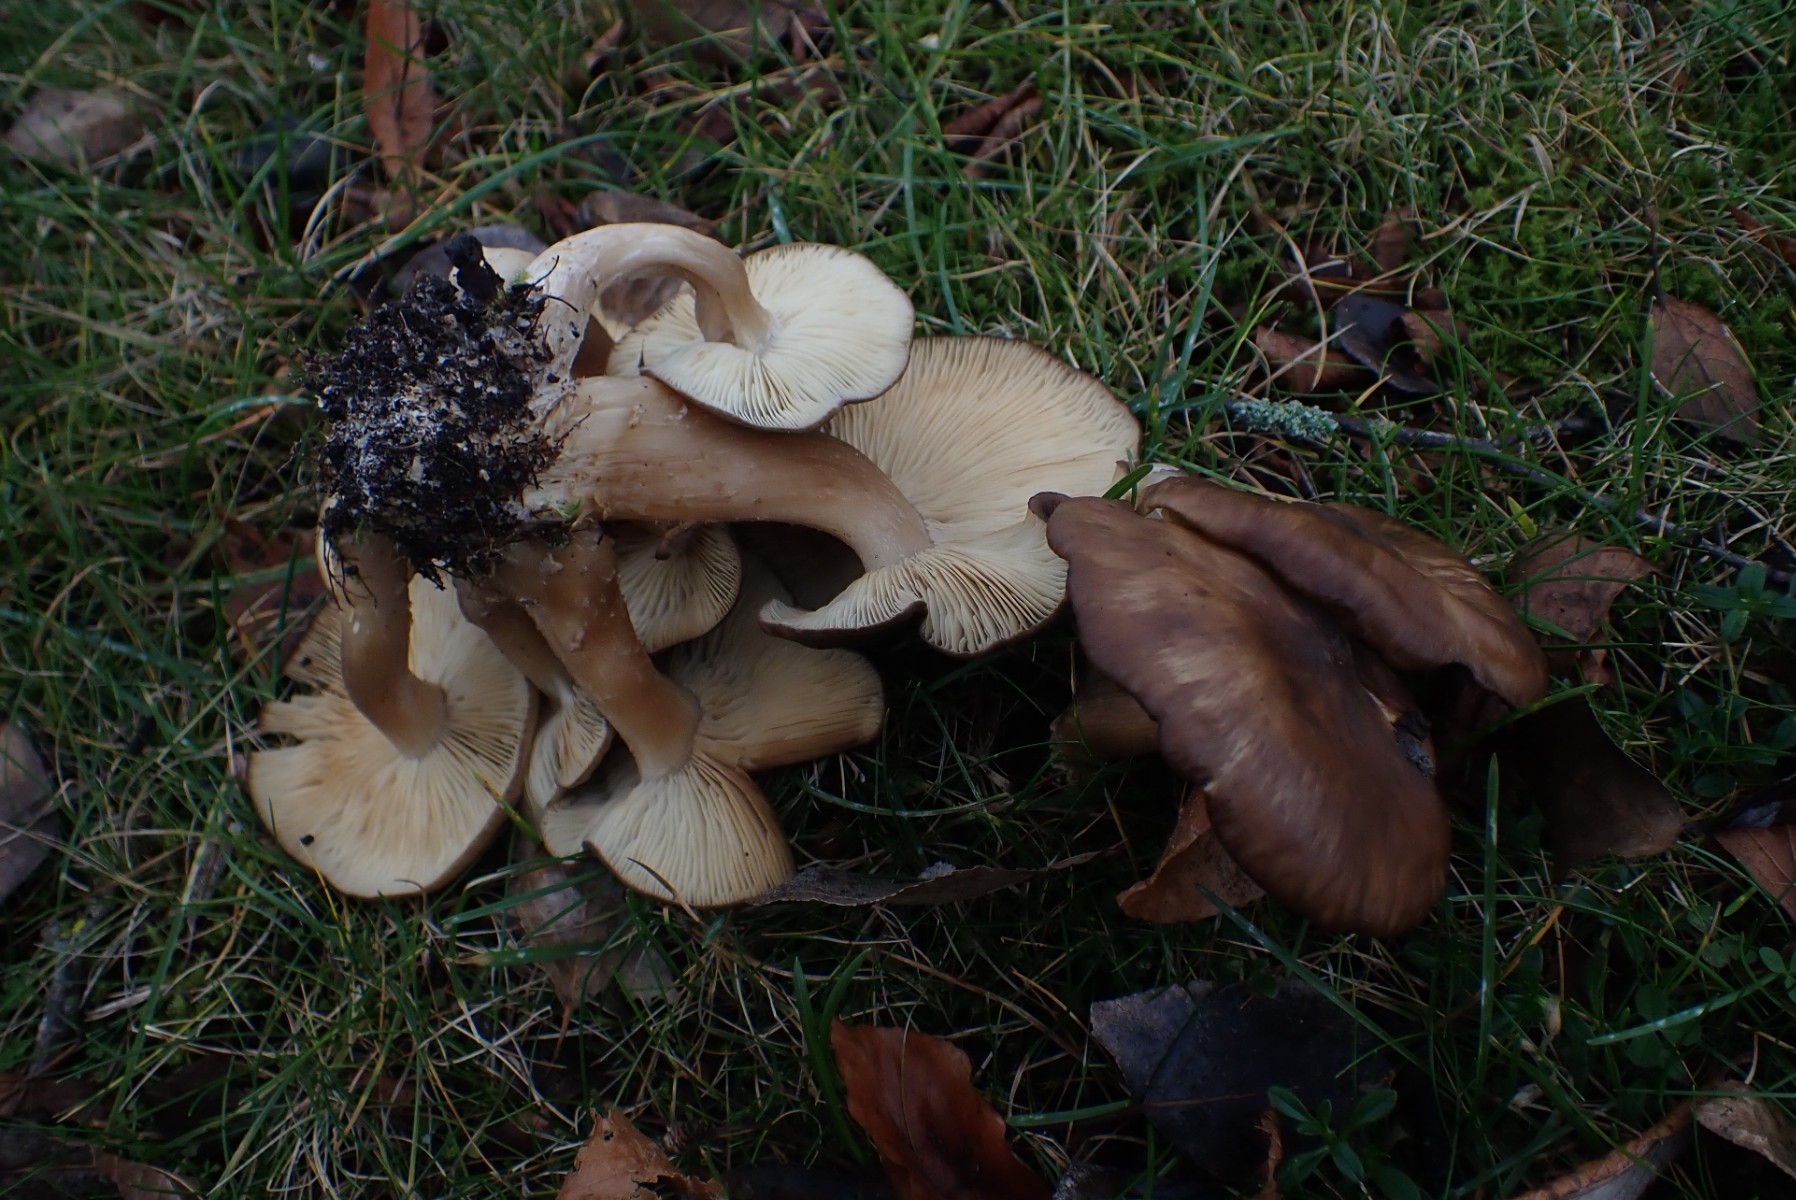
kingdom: Fungi
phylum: Basidiomycota
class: Agaricomycetes
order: Agaricales
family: Lyophyllaceae
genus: Lyophyllum
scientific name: Lyophyllum decastes
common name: røggrå gråblad
